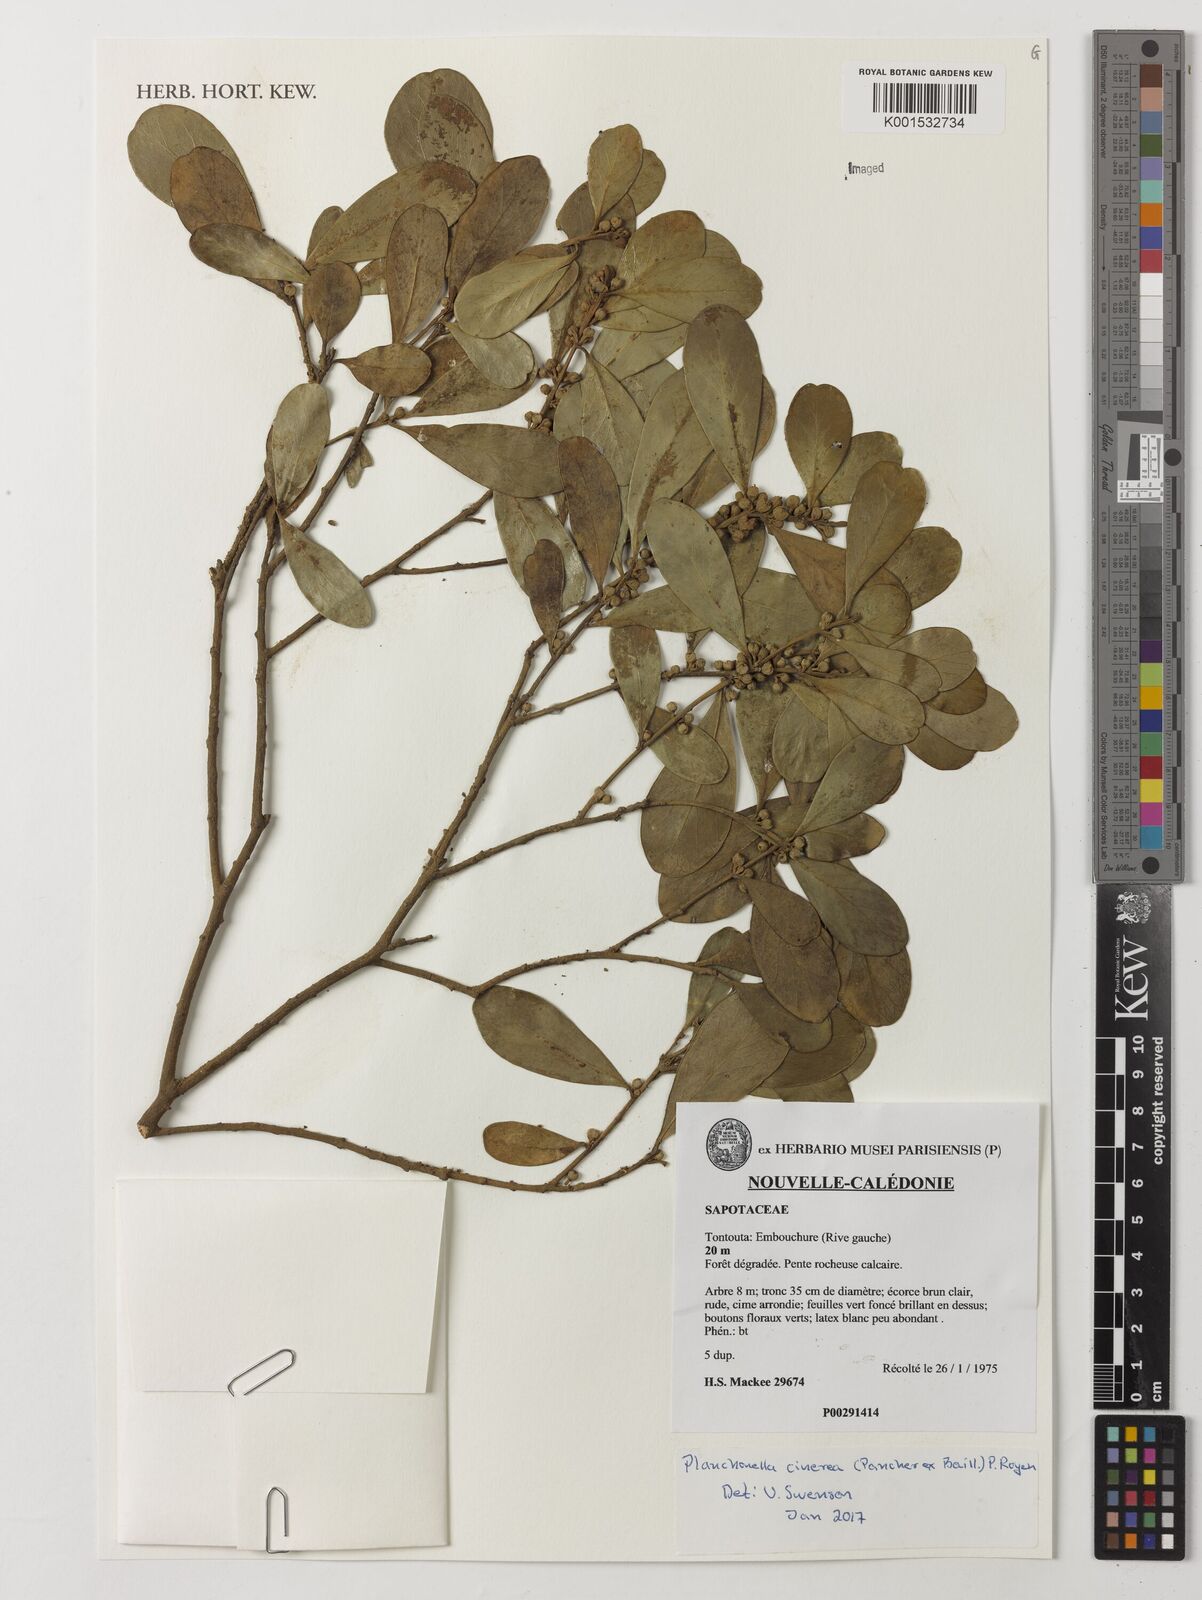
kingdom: Plantae
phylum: Tracheophyta
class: Magnoliopsida
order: Ericales
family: Sapotaceae
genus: Planchonella
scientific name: Planchonella cinerea
